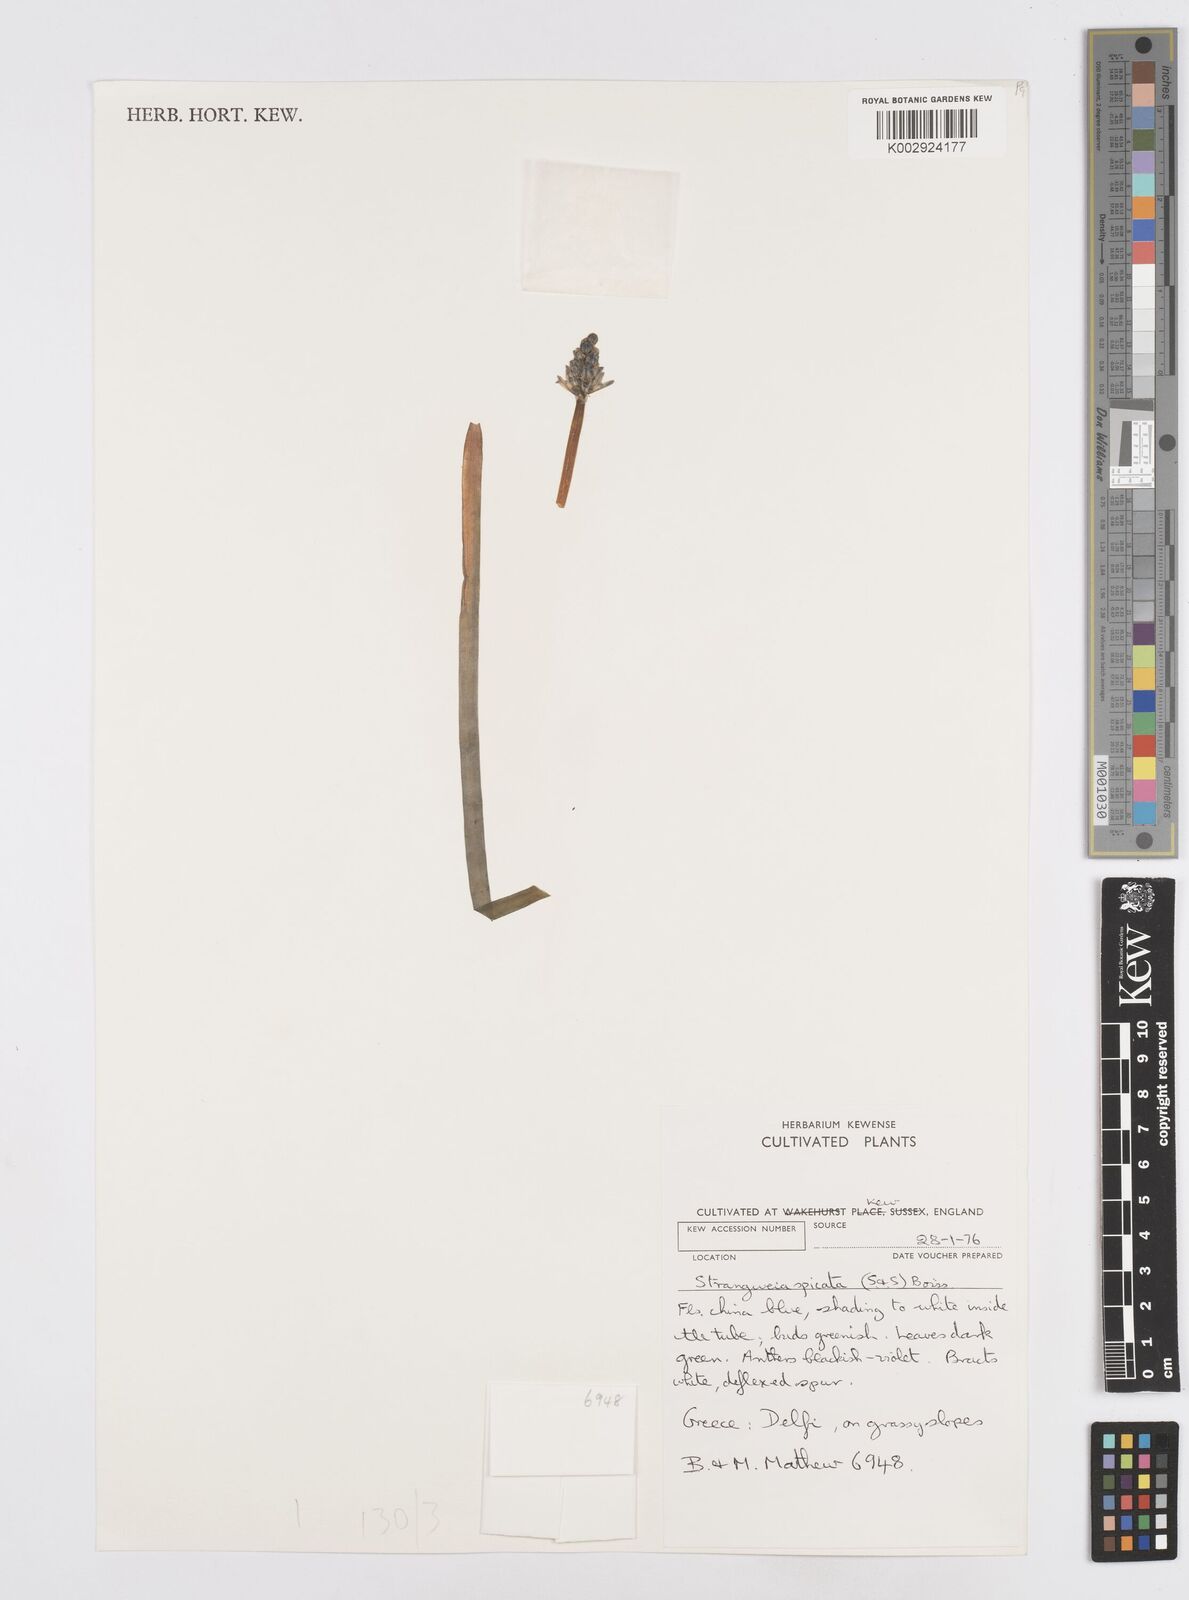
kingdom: Plantae
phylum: Tracheophyta
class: Liliopsida
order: Asparagales
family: Asparagaceae
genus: Bellevalia
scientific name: Bellevalia hyacinthoides
